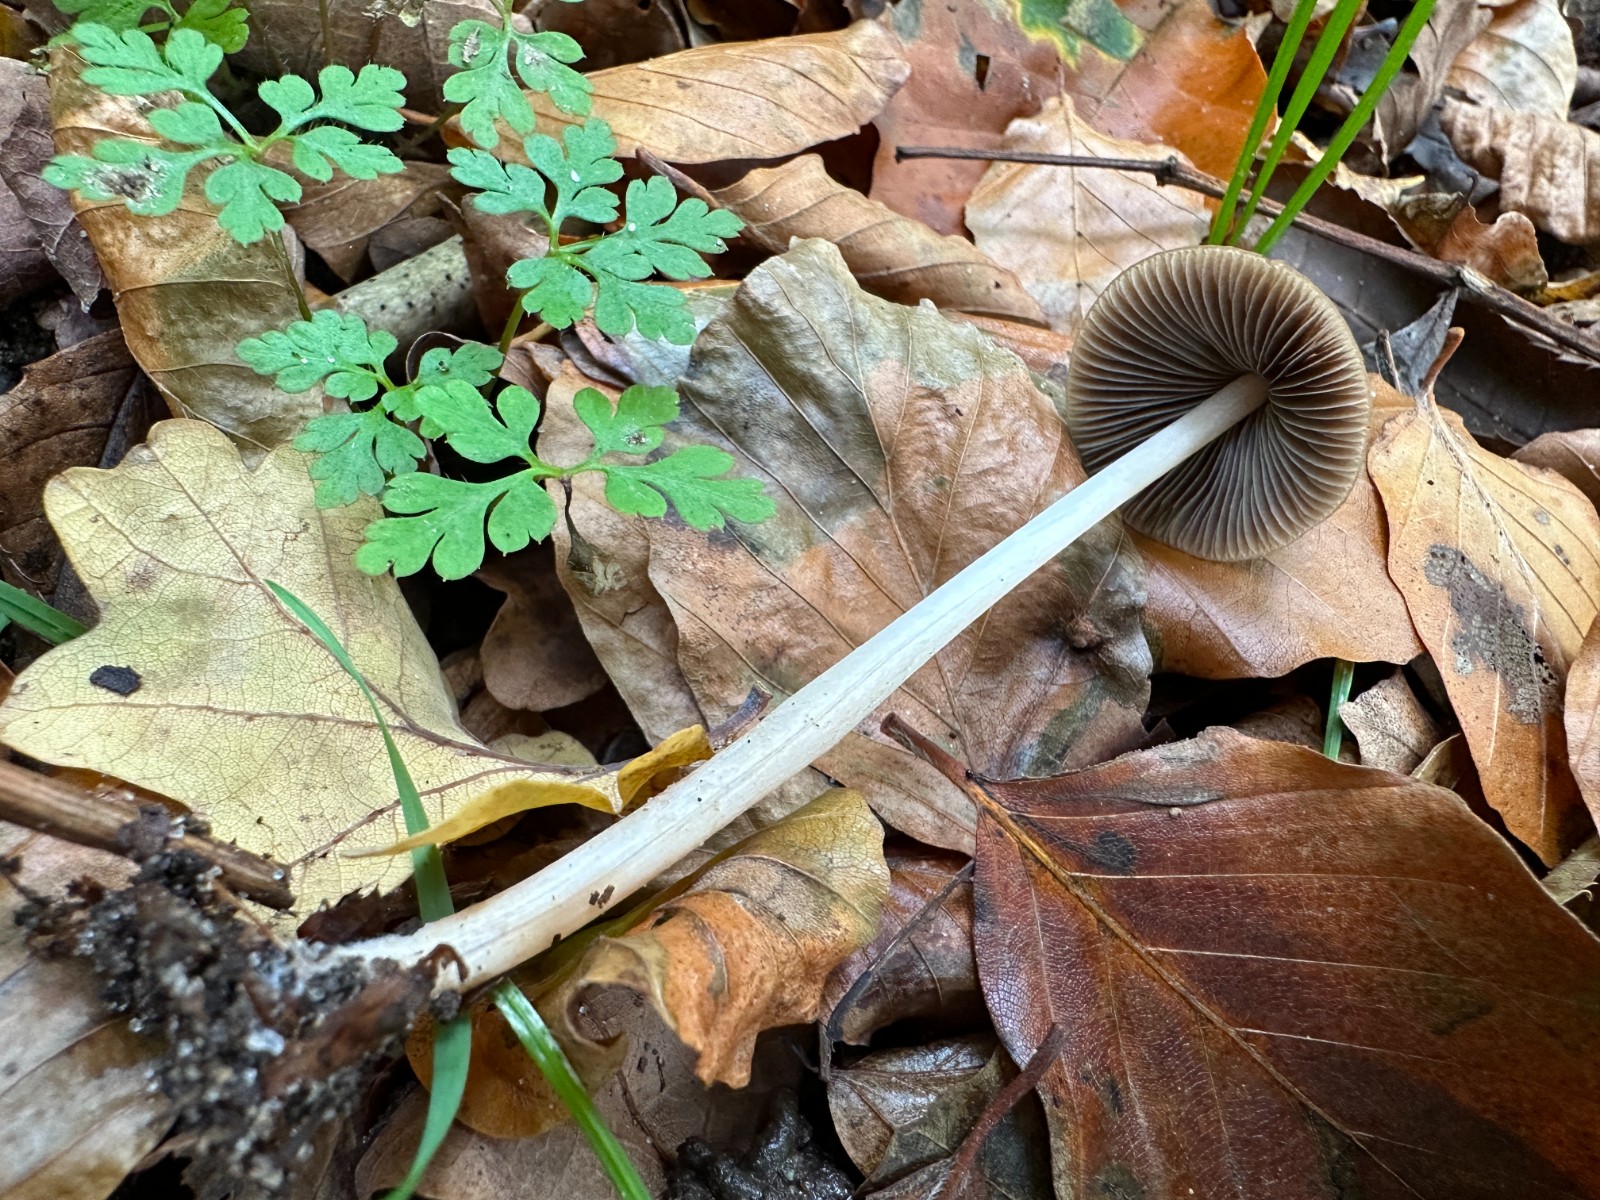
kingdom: Fungi
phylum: Basidiomycota
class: Agaricomycetes
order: Agaricales
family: Psathyrellaceae
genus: Parasola
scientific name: Parasola conopilea
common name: kegle-hjulhat
